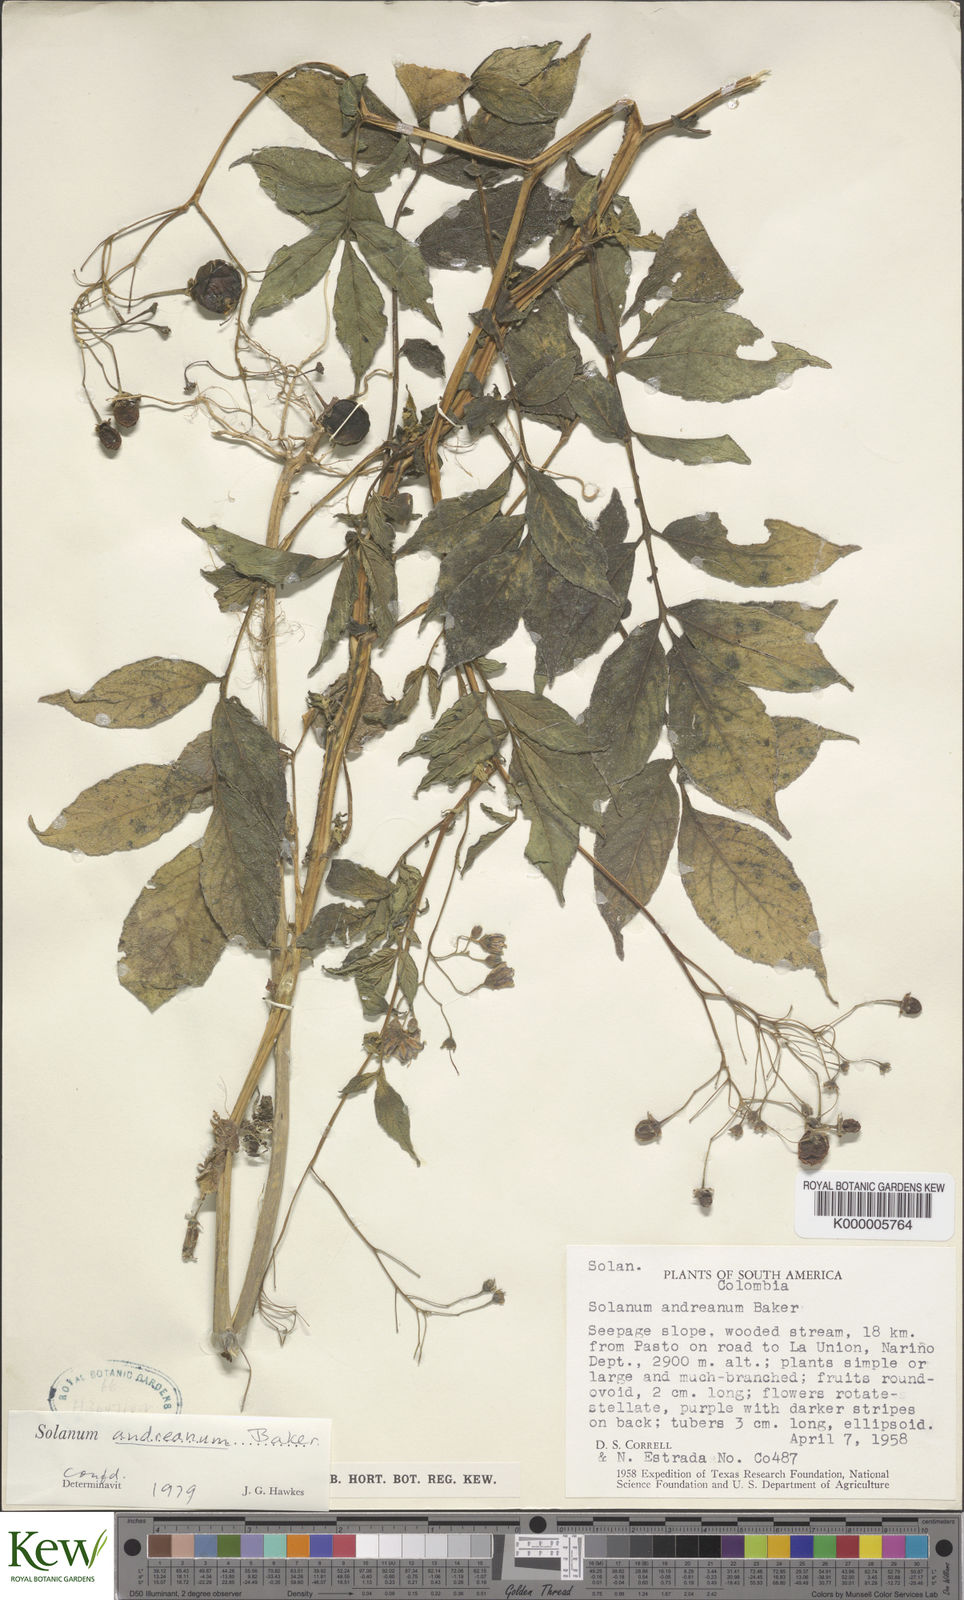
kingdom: Plantae
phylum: Tracheophyta
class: Magnoliopsida
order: Solanales
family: Solanaceae
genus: Solanum
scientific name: Solanum andreanum
